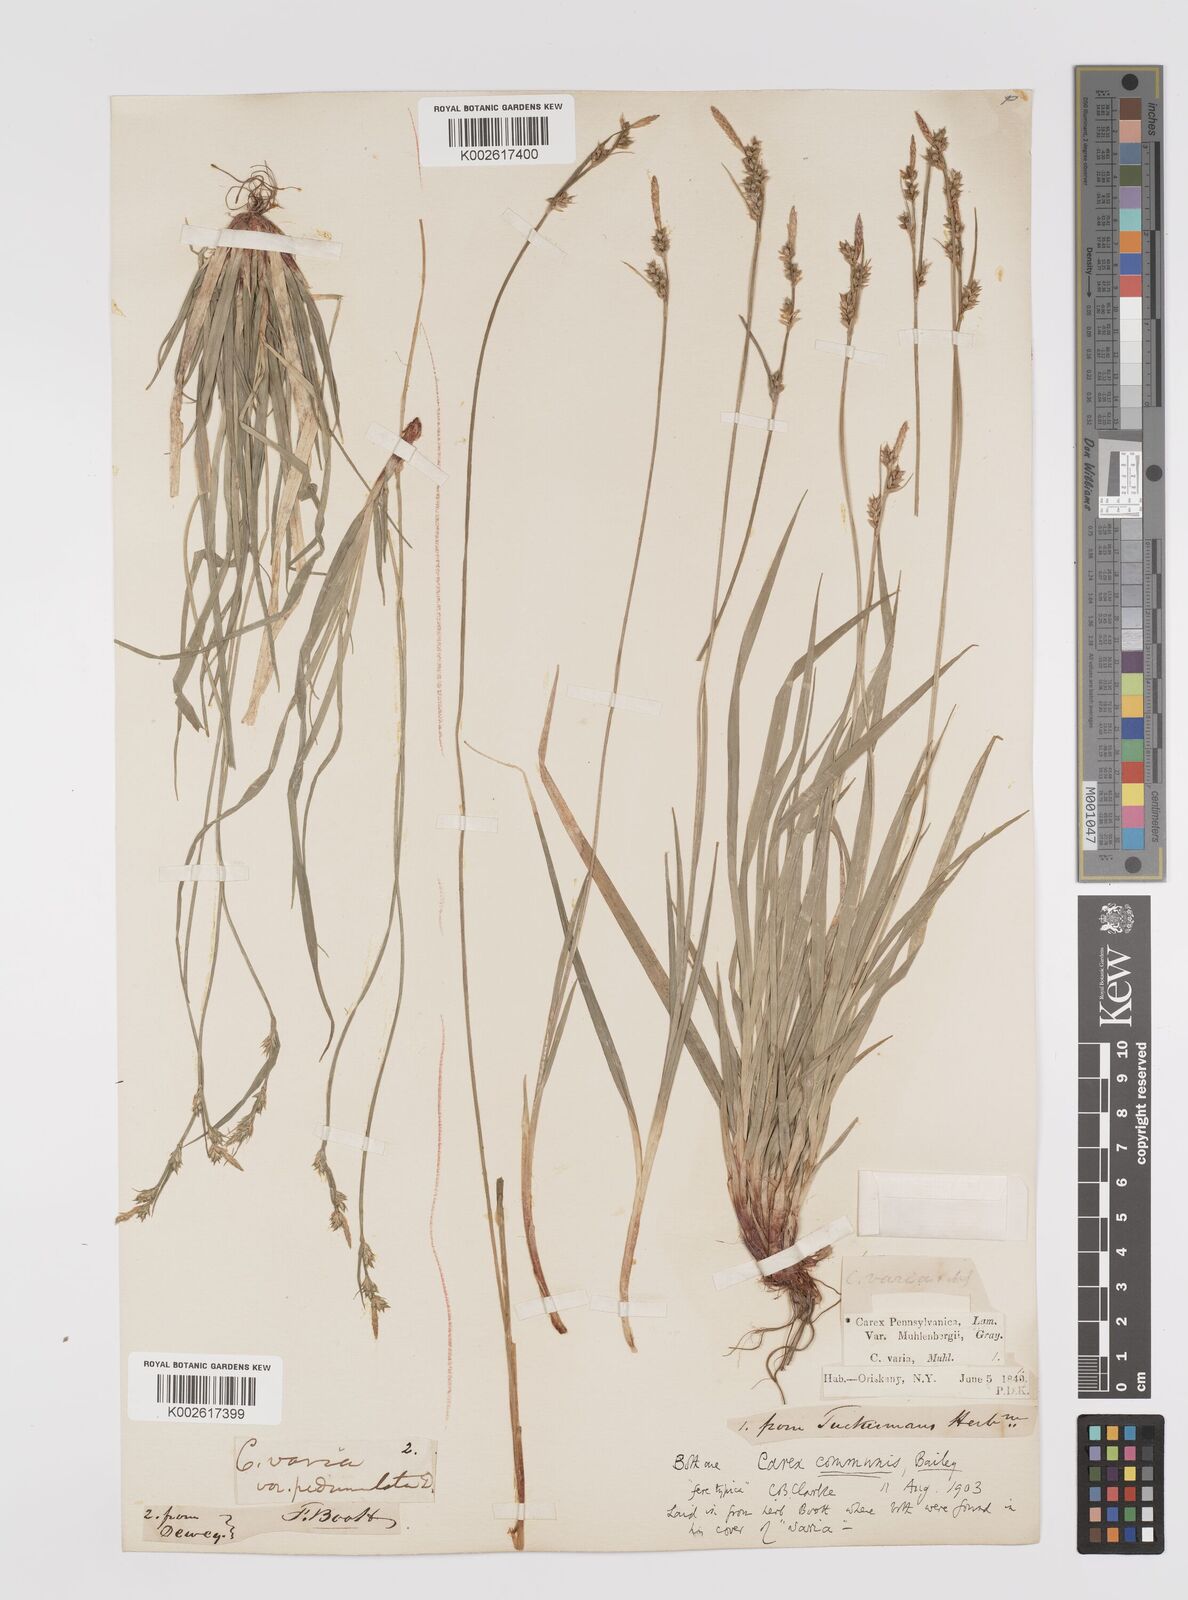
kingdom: Plantae
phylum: Tracheophyta
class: Liliopsida
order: Poales
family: Cyperaceae
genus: Carex
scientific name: Carex communis
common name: Colonial oak sedge
